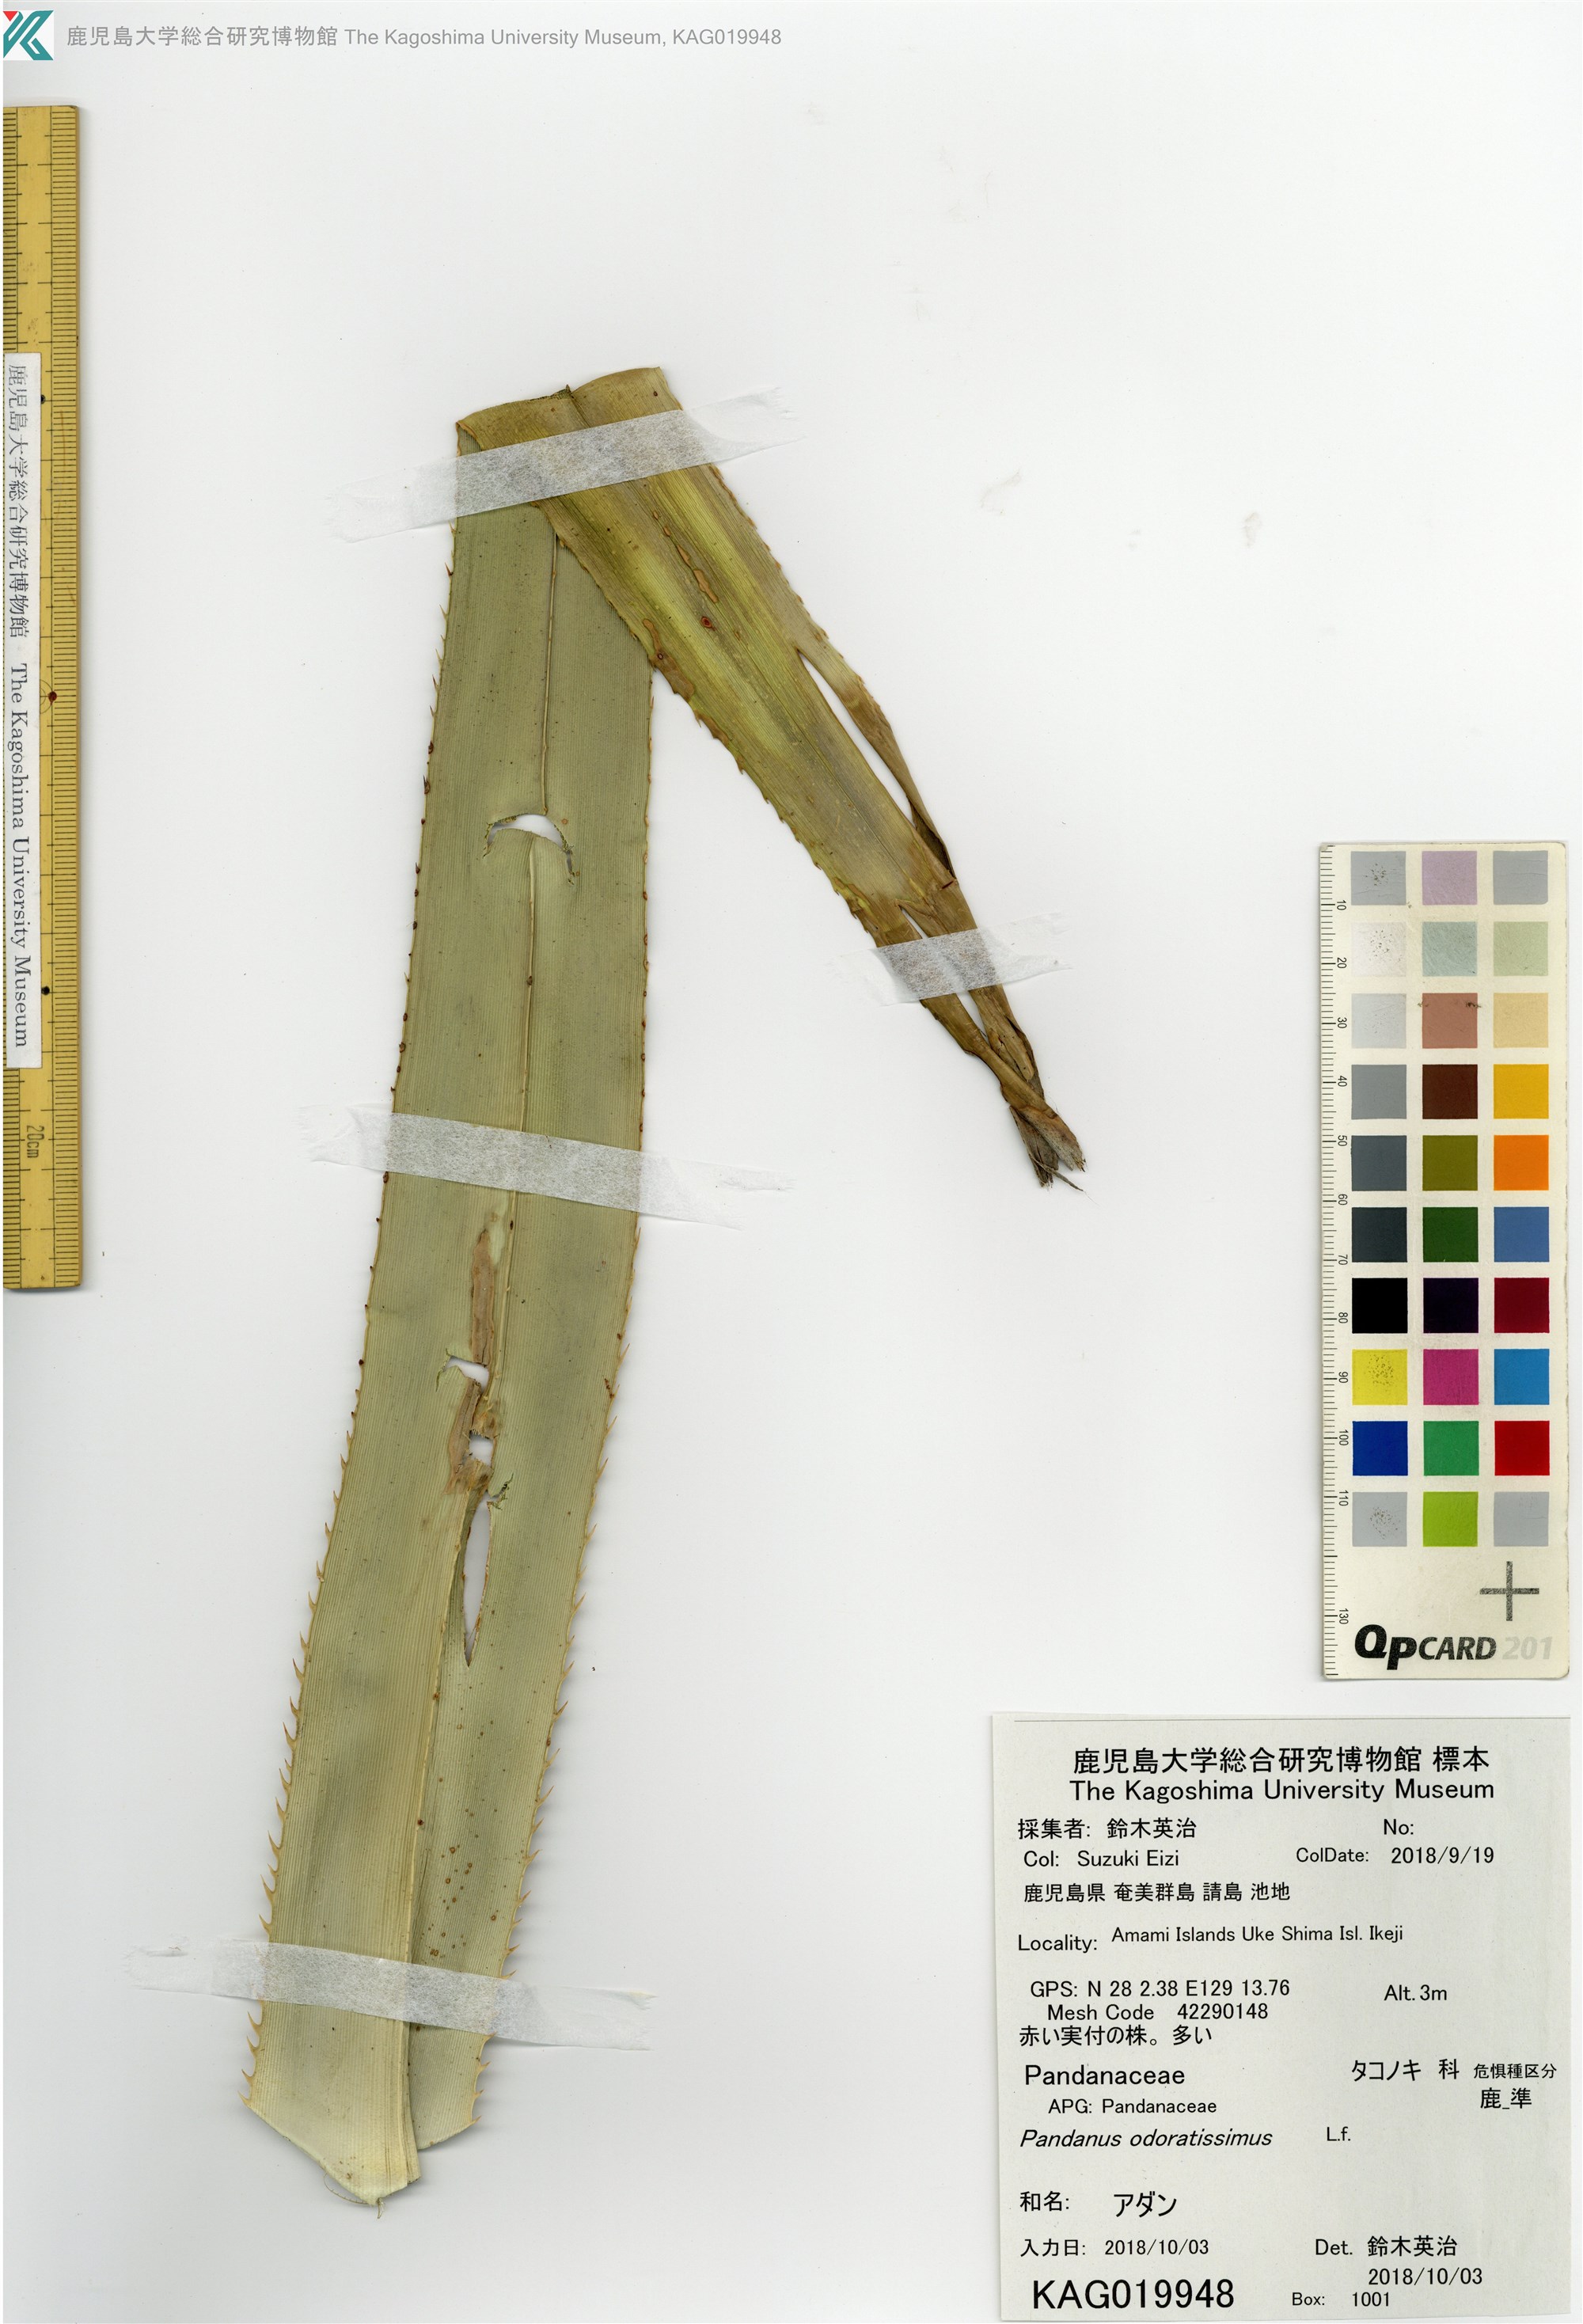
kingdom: Plantae
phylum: Tracheophyta
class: Liliopsida
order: Pandanales
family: Pandanaceae
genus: Pandanus
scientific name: Pandanus odorifer
